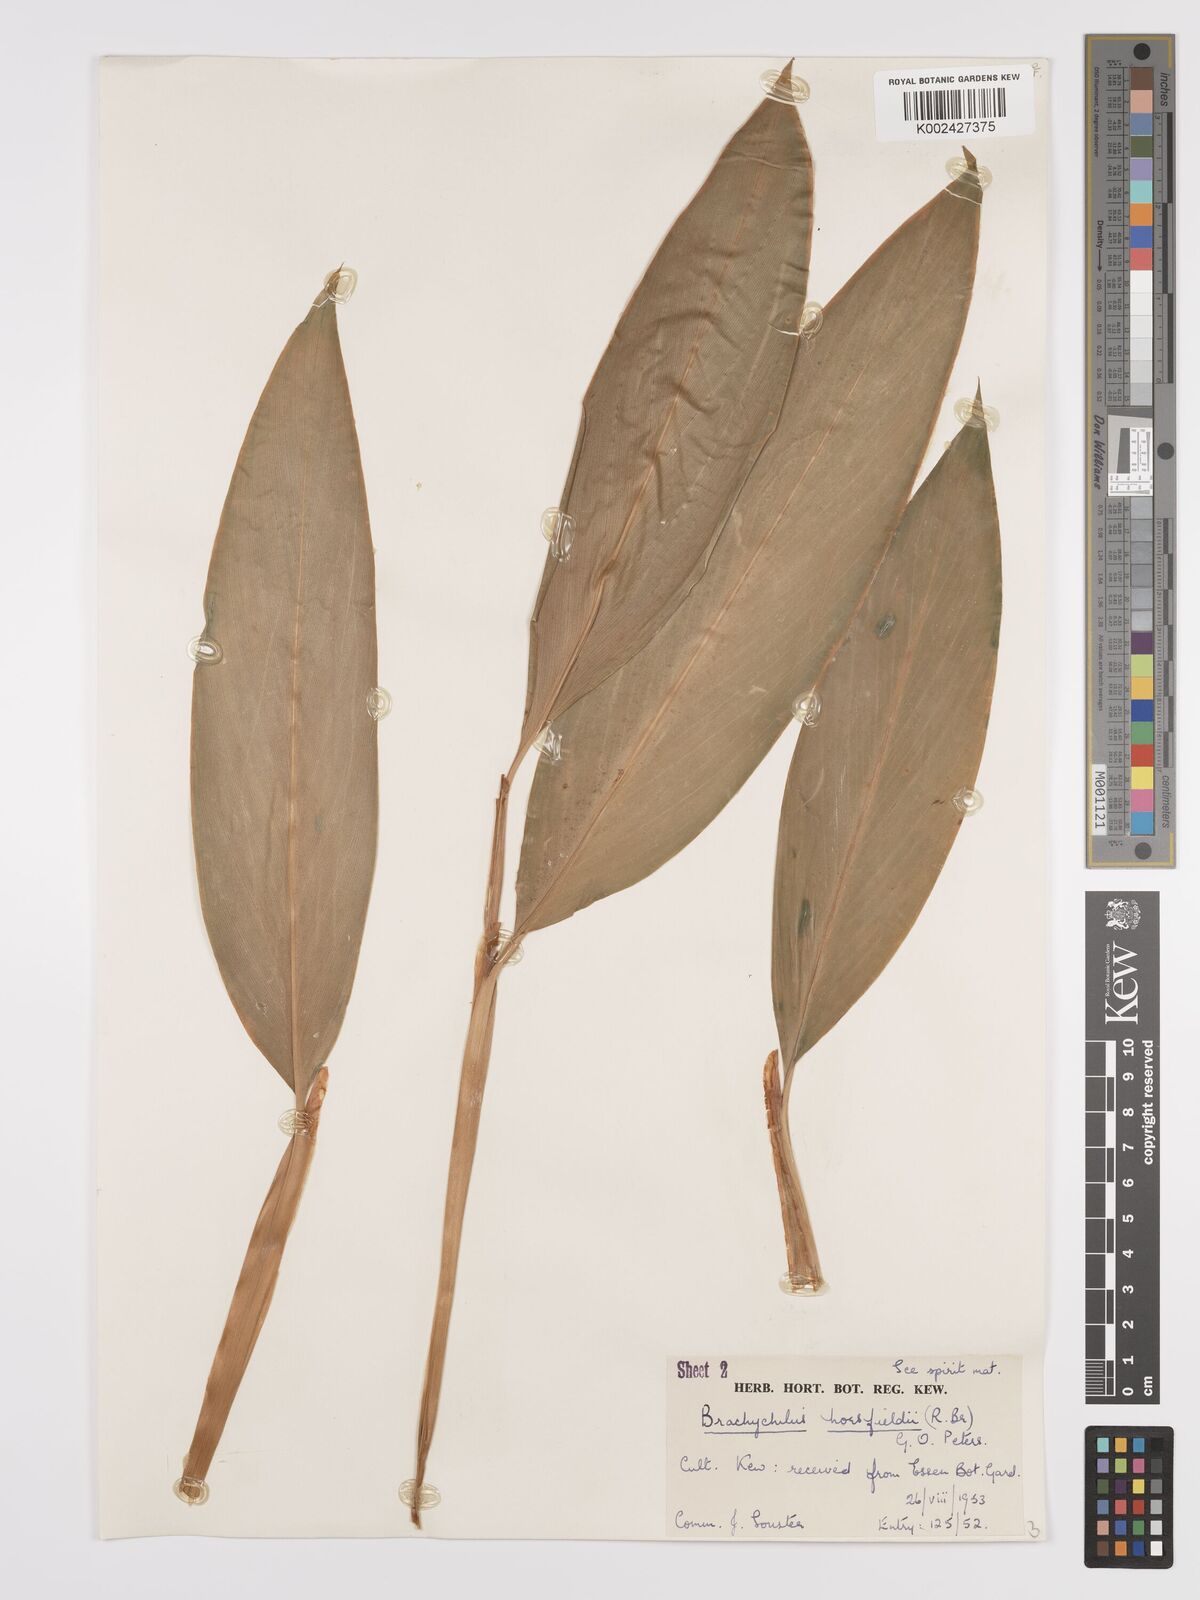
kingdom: Plantae
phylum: Tracheophyta
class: Liliopsida
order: Zingiberales
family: Zingiberaceae
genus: Hedychium
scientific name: Hedychium horsfieldii
